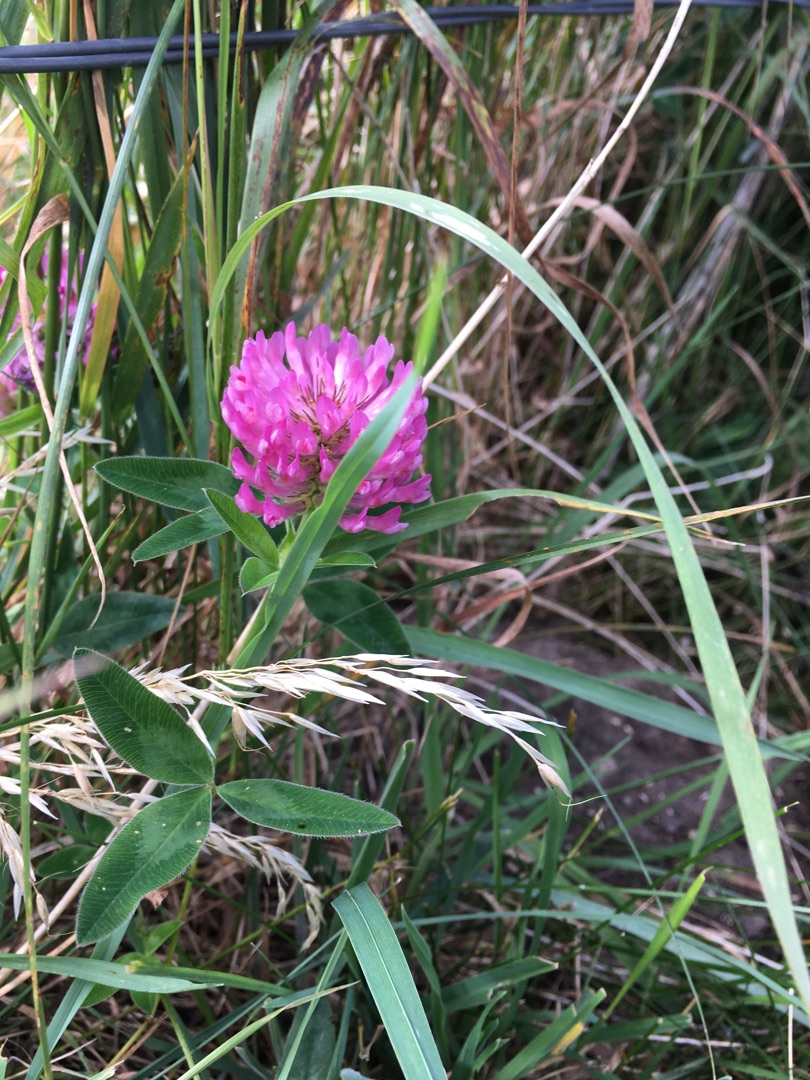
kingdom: Plantae
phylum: Tracheophyta
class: Magnoliopsida
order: Fabales
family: Fabaceae
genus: Trifolium
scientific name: Trifolium medium
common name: Bugtet kløver
